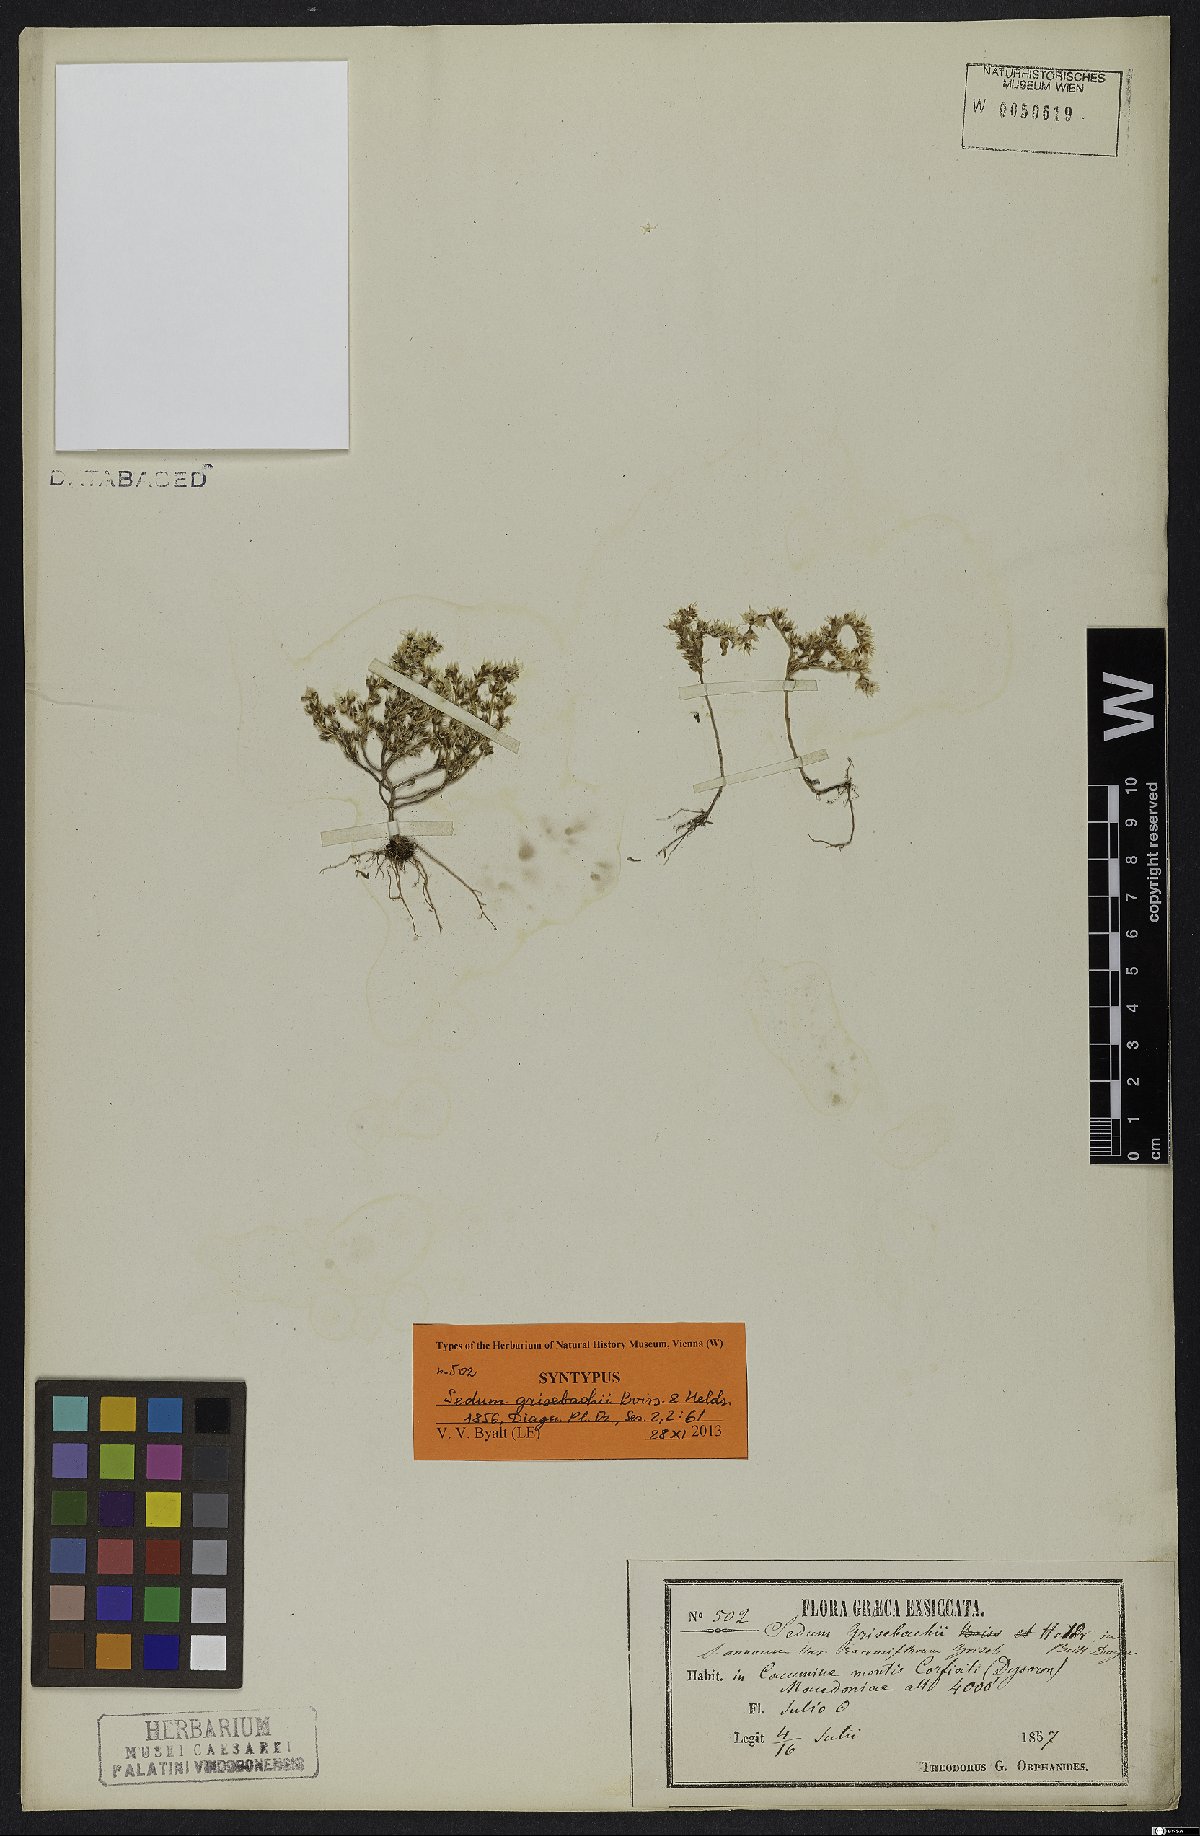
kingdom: Plantae
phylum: Tracheophyta
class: Magnoliopsida
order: Saxifragales
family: Crassulaceae
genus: Sedum
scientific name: Sedum grisebachii
